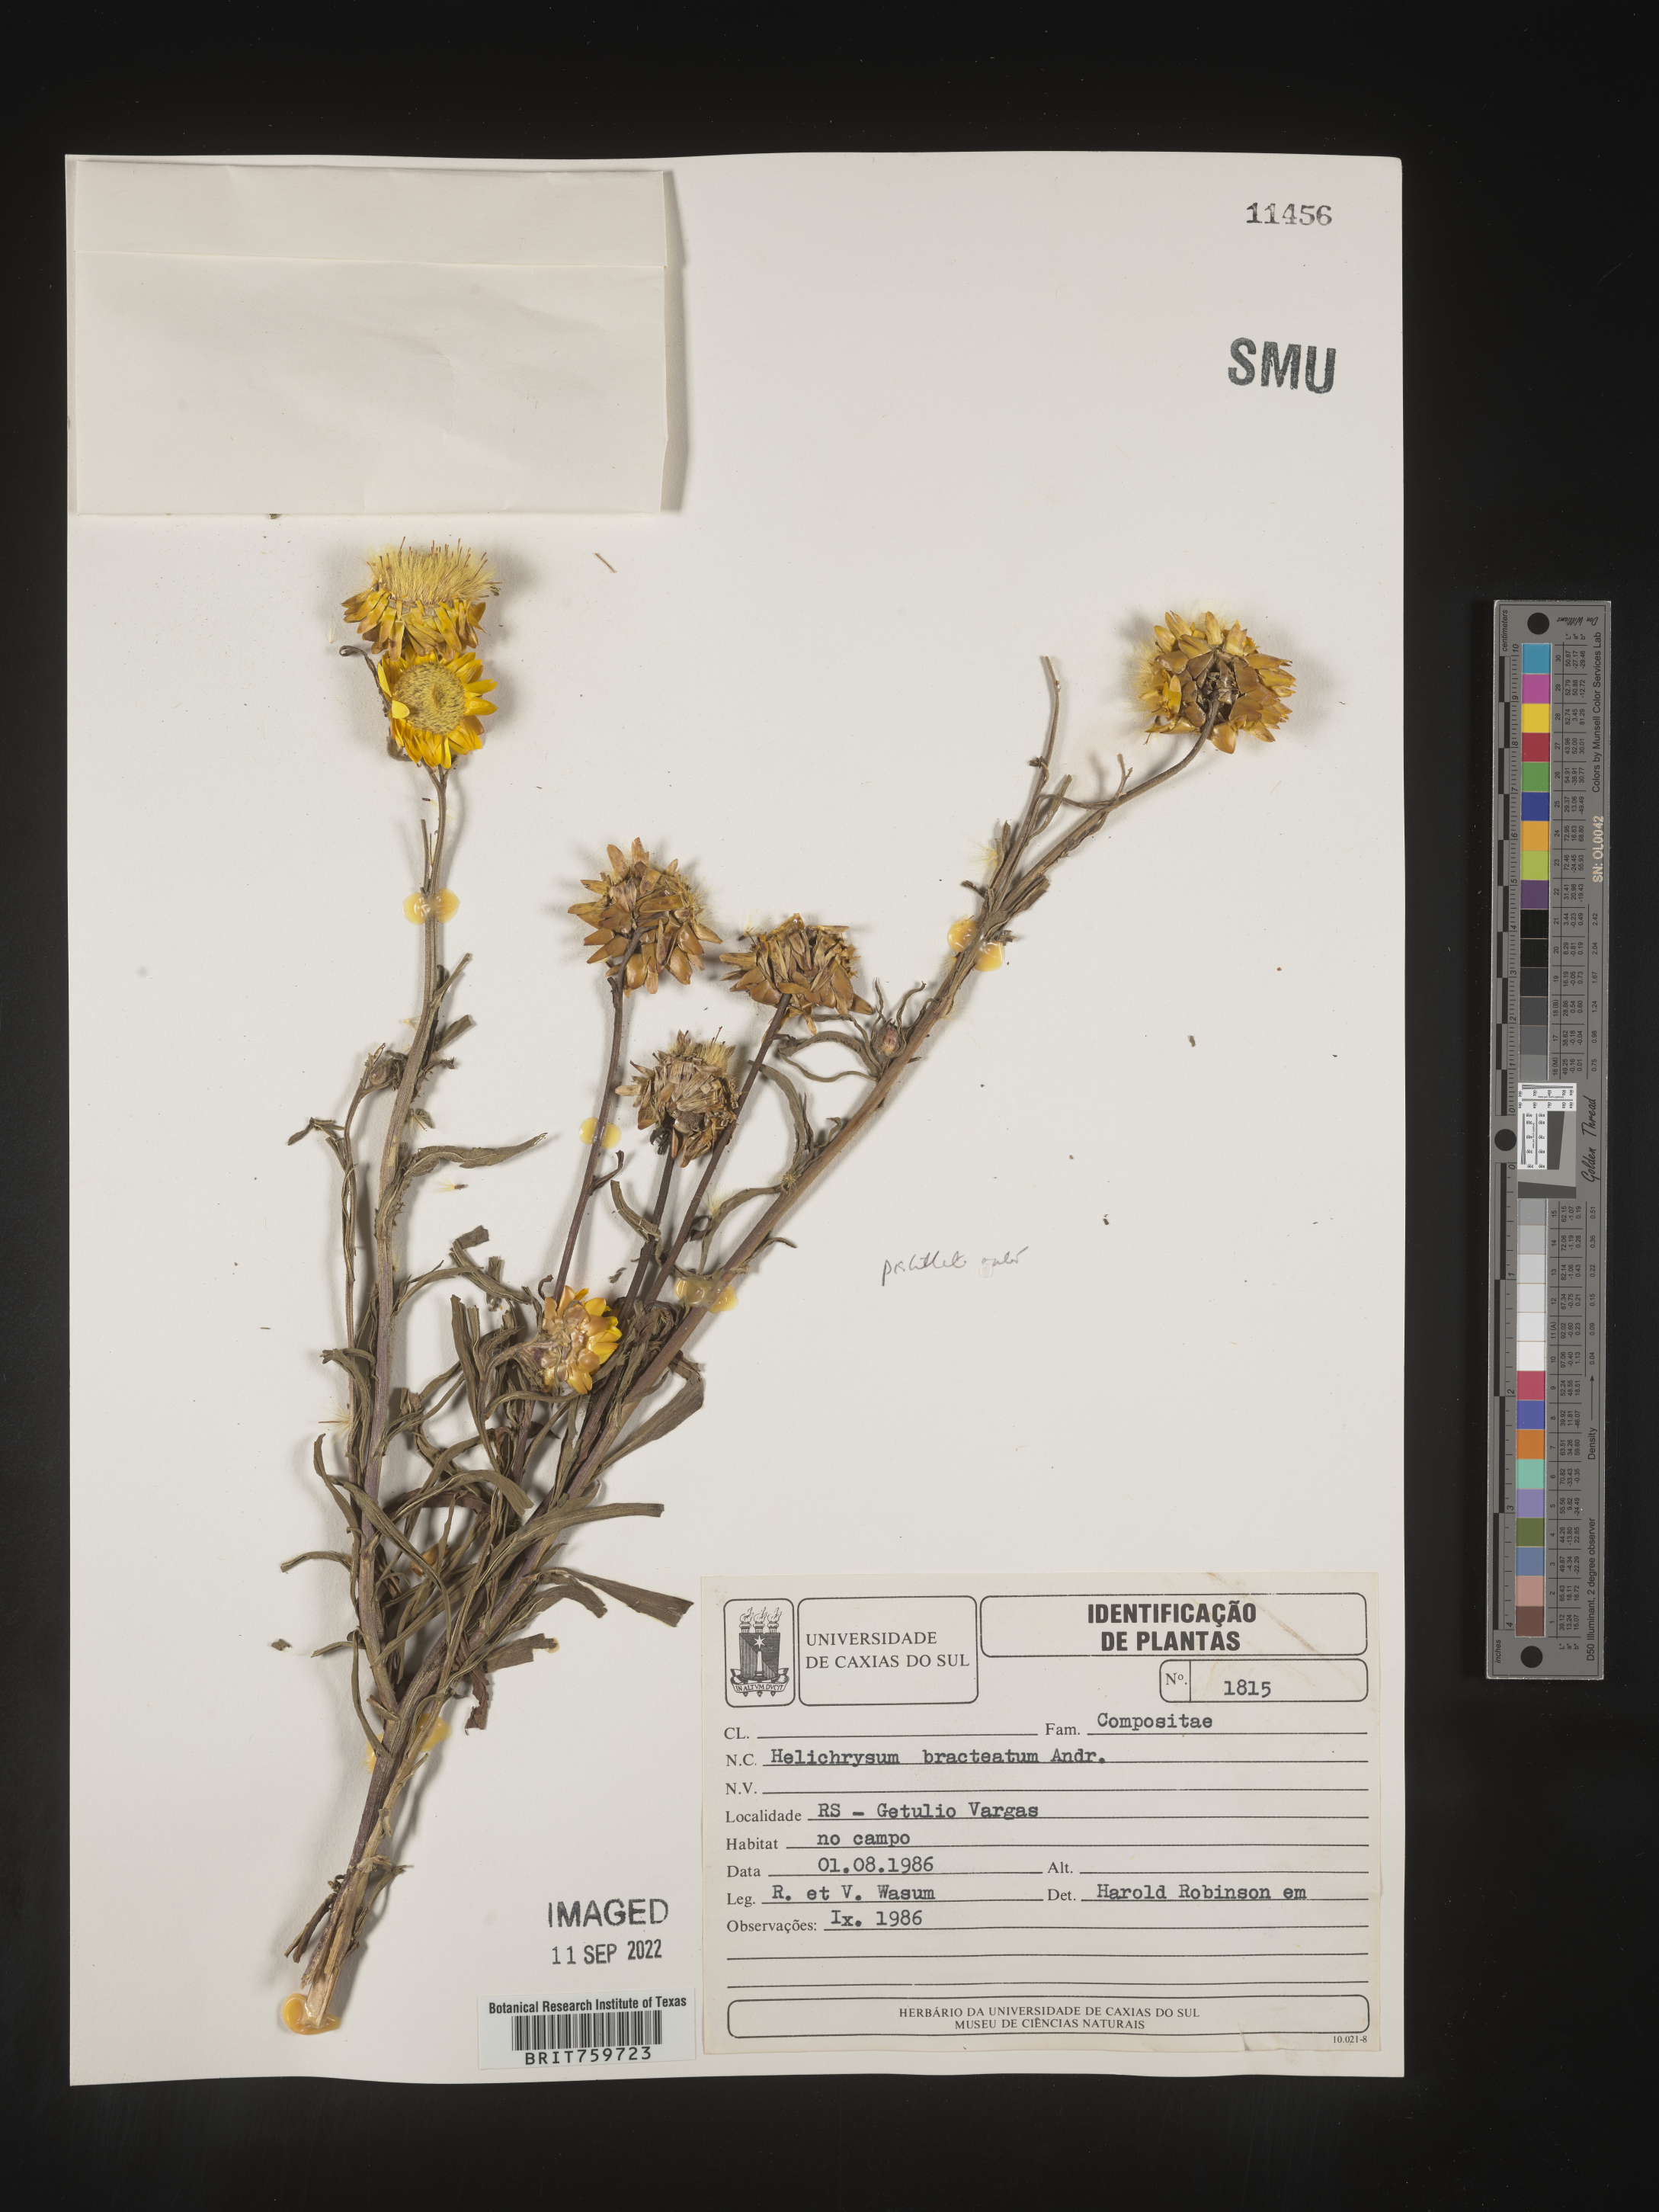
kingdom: Plantae
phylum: Tracheophyta
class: Magnoliopsida
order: Asterales
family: Asteraceae
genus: Helichrysum
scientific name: Helichrysum
